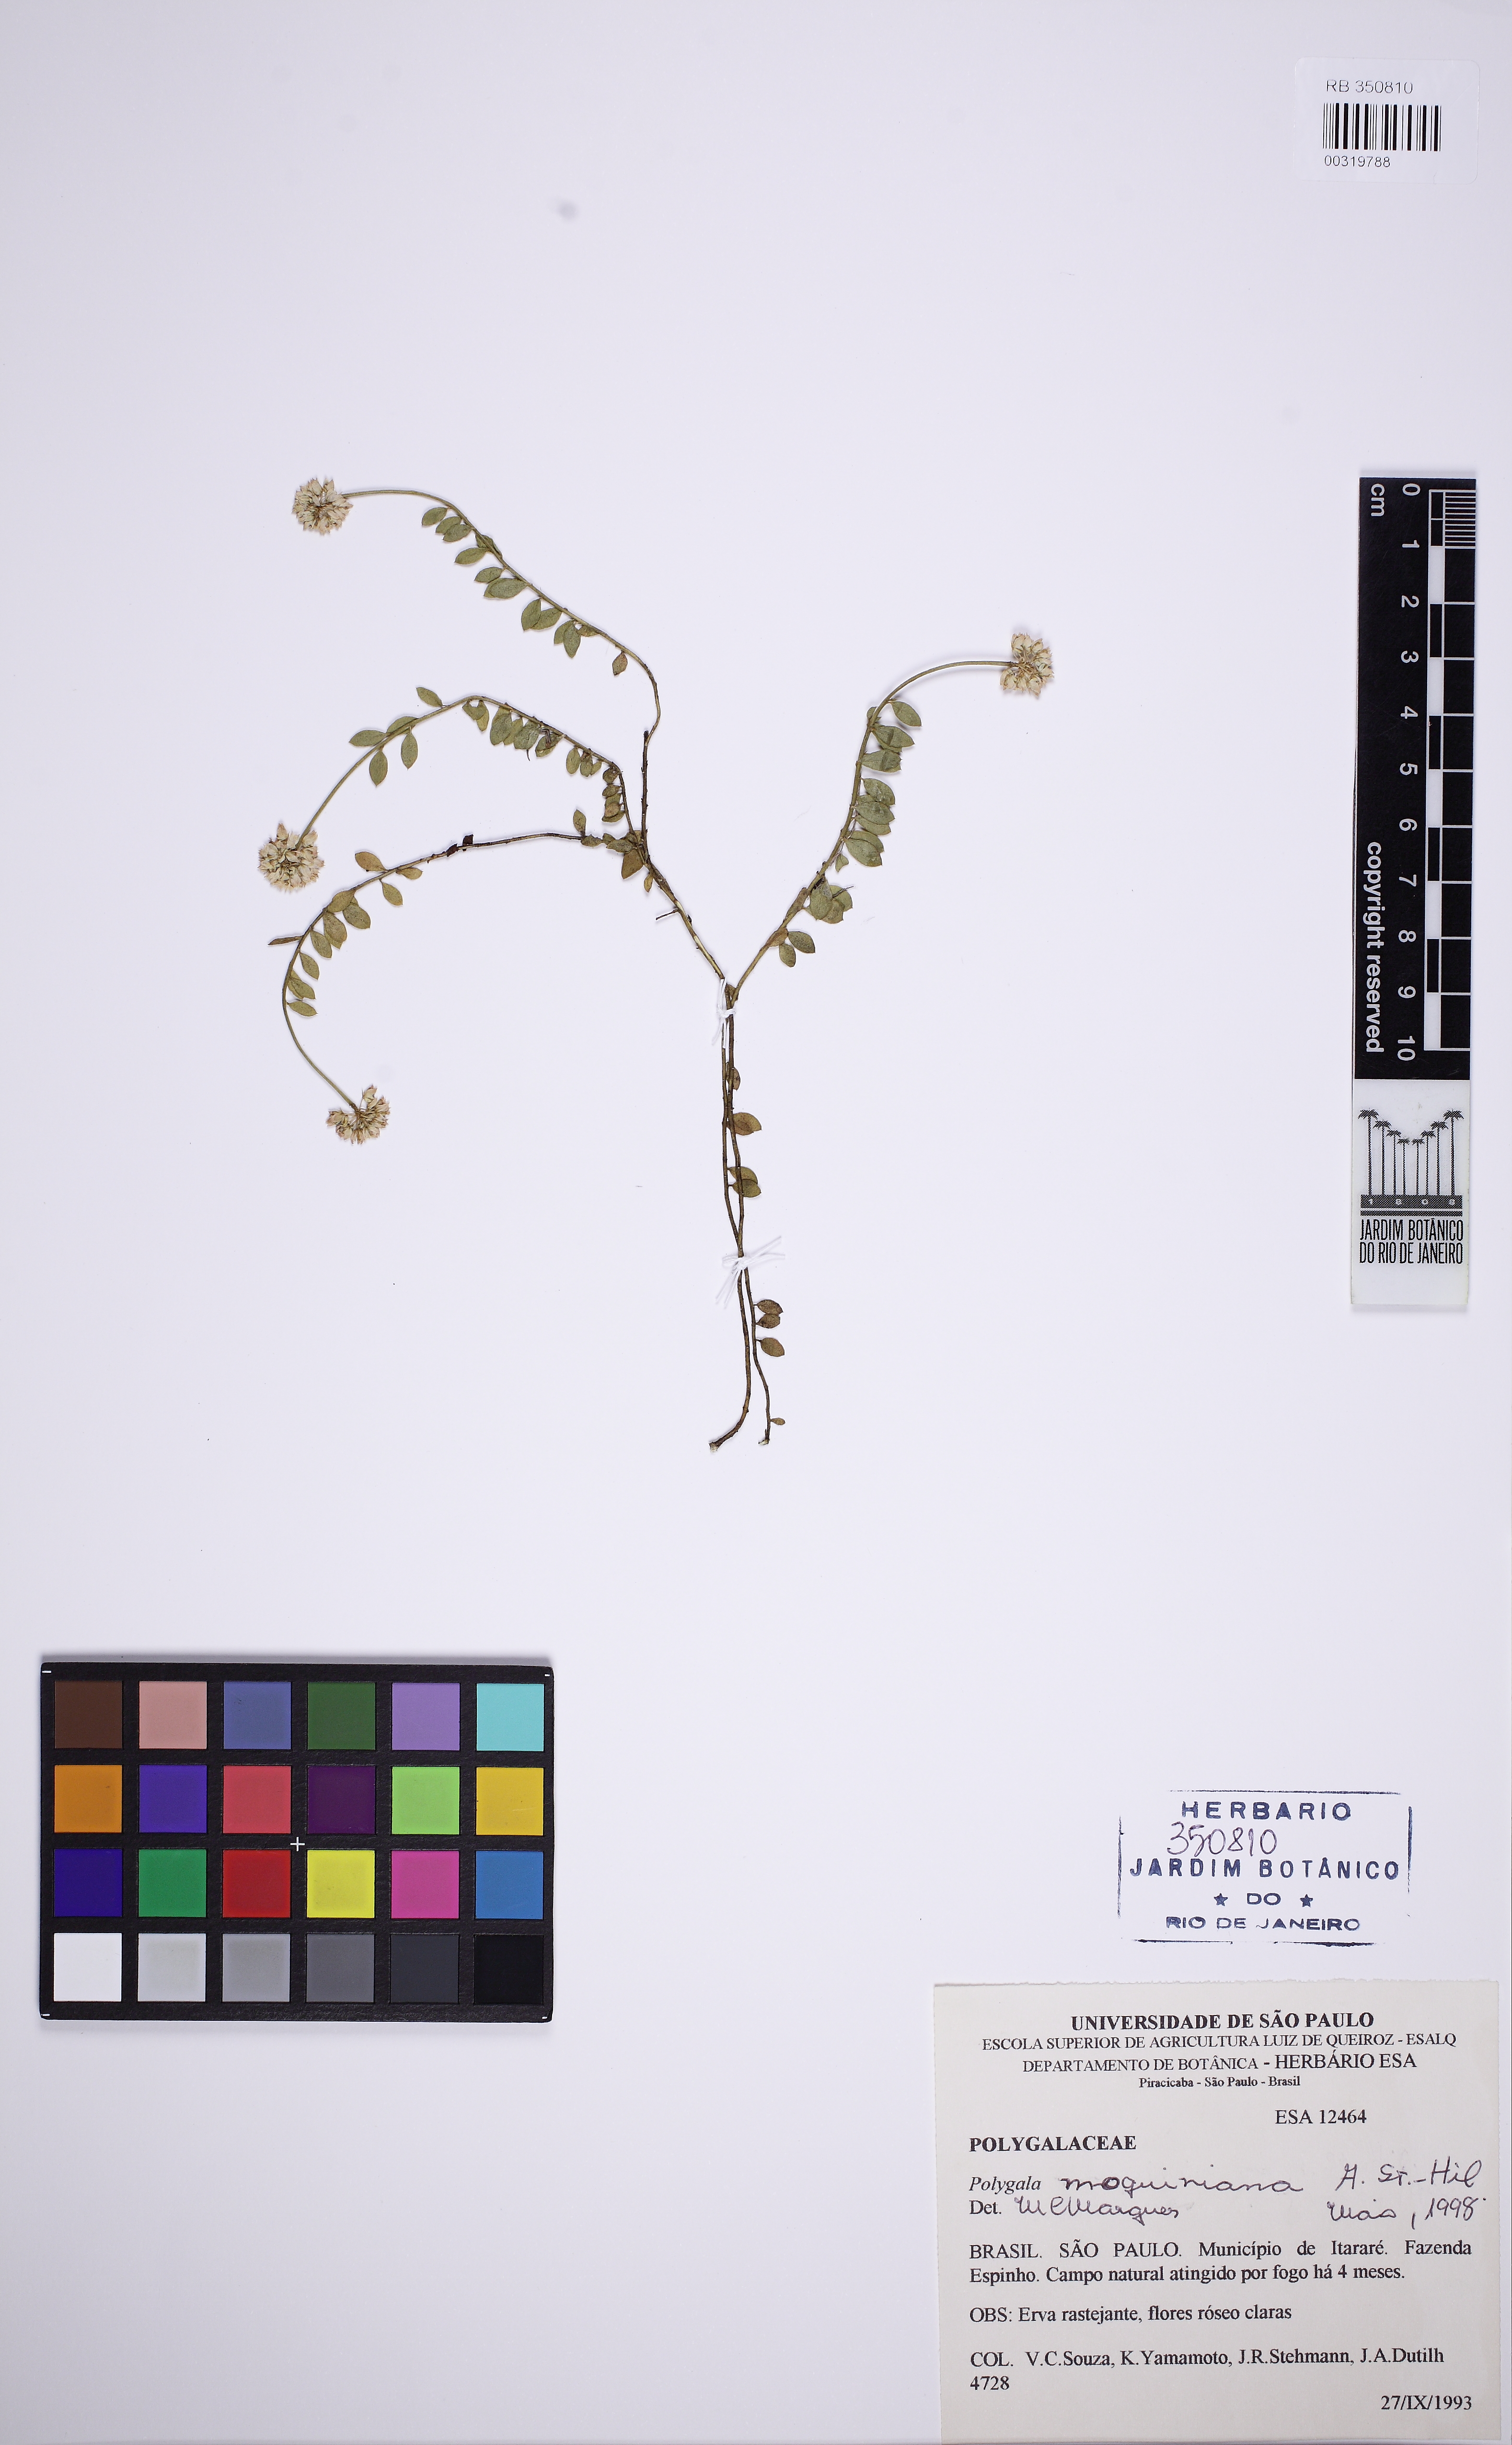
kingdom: Plantae
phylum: Tracheophyta
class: Magnoliopsida
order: Fabales
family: Polygalaceae
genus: Polygala
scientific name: Polygala moquiniana
